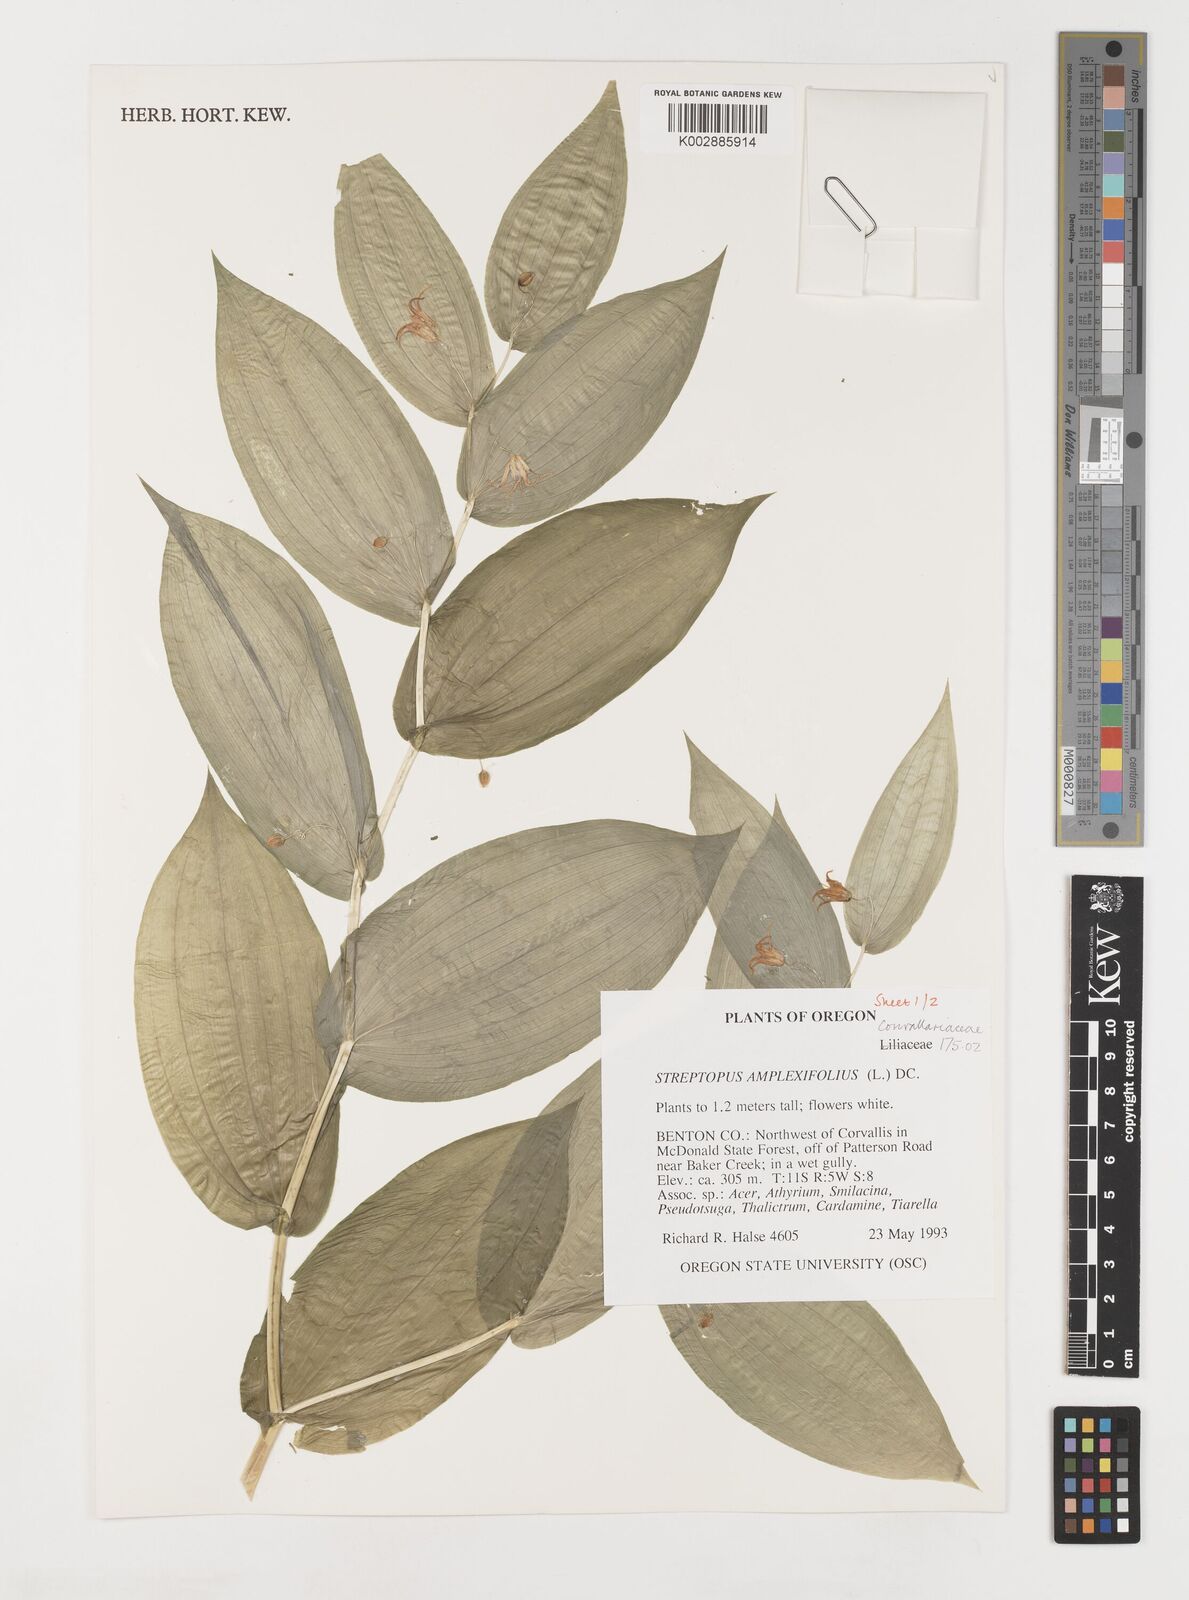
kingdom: Plantae
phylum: Tracheophyta
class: Liliopsida
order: Liliales
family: Liliaceae
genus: Streptopus
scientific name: Streptopus
